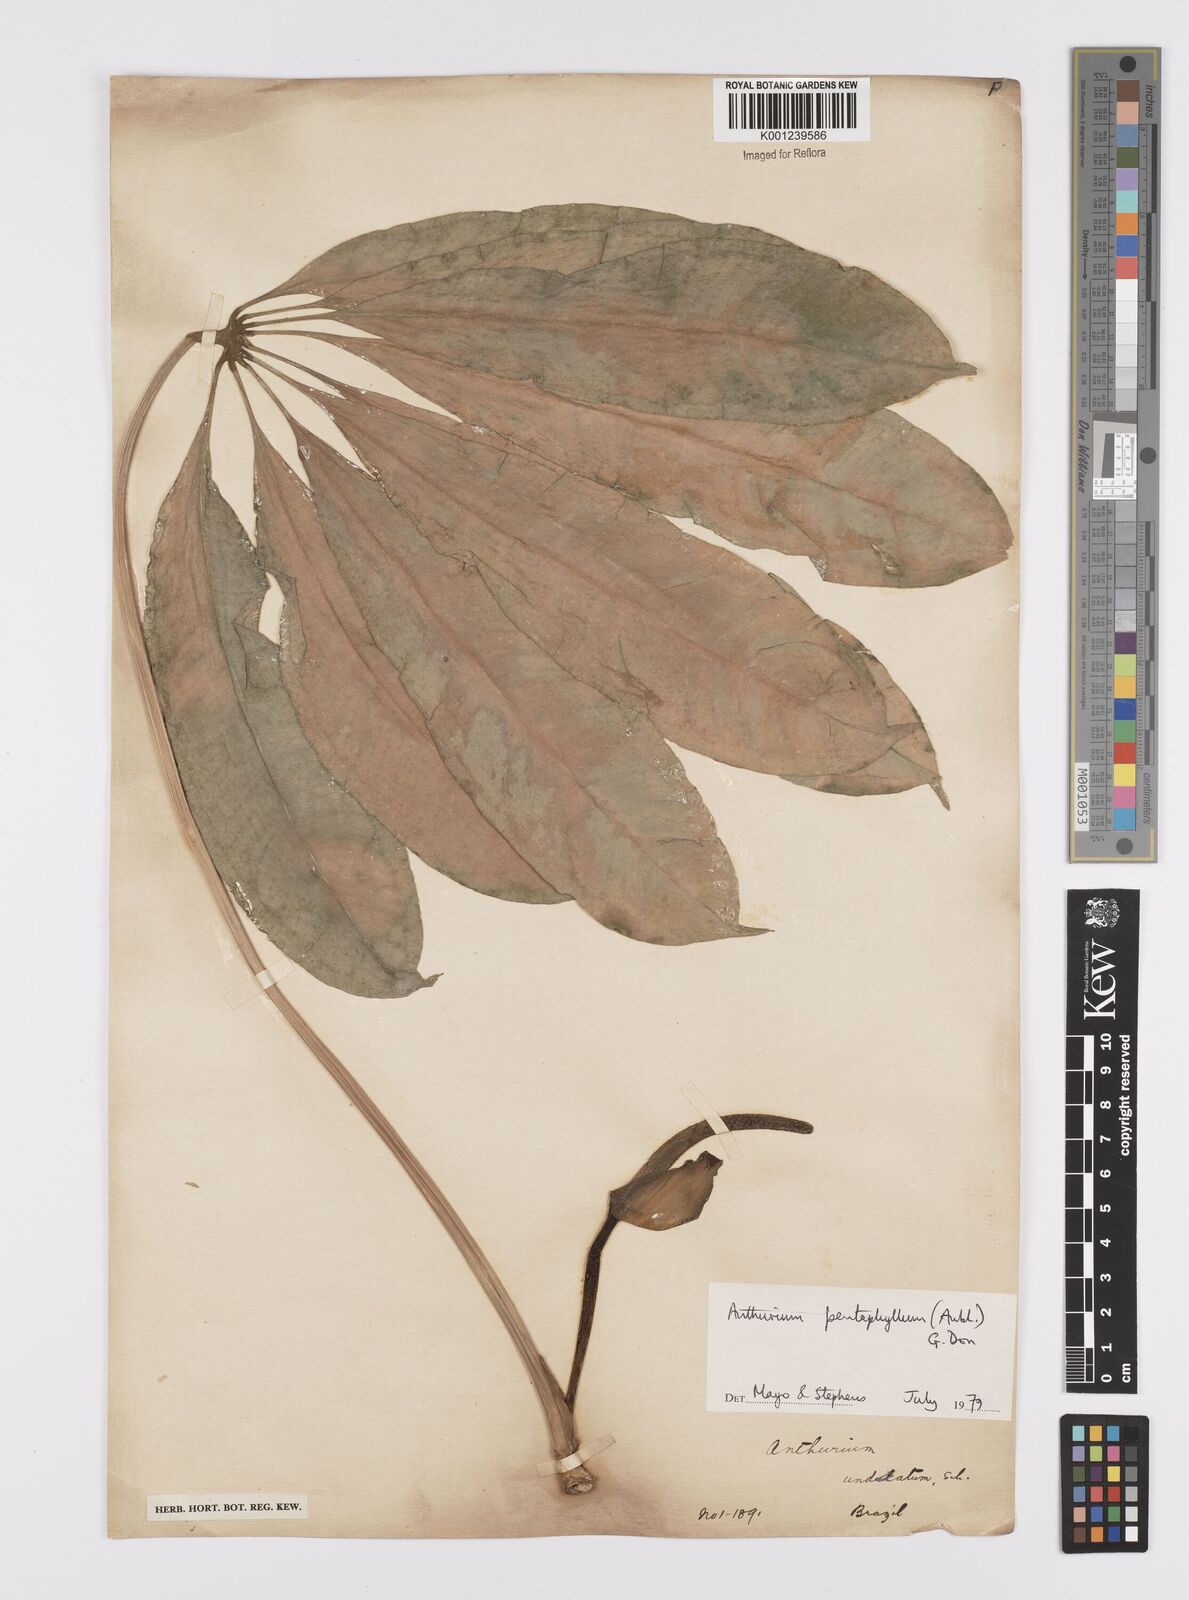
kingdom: Plantae
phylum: Tracheophyta
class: Liliopsida
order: Alismatales
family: Araceae
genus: Anthurium
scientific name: Anthurium pentaphyllum
